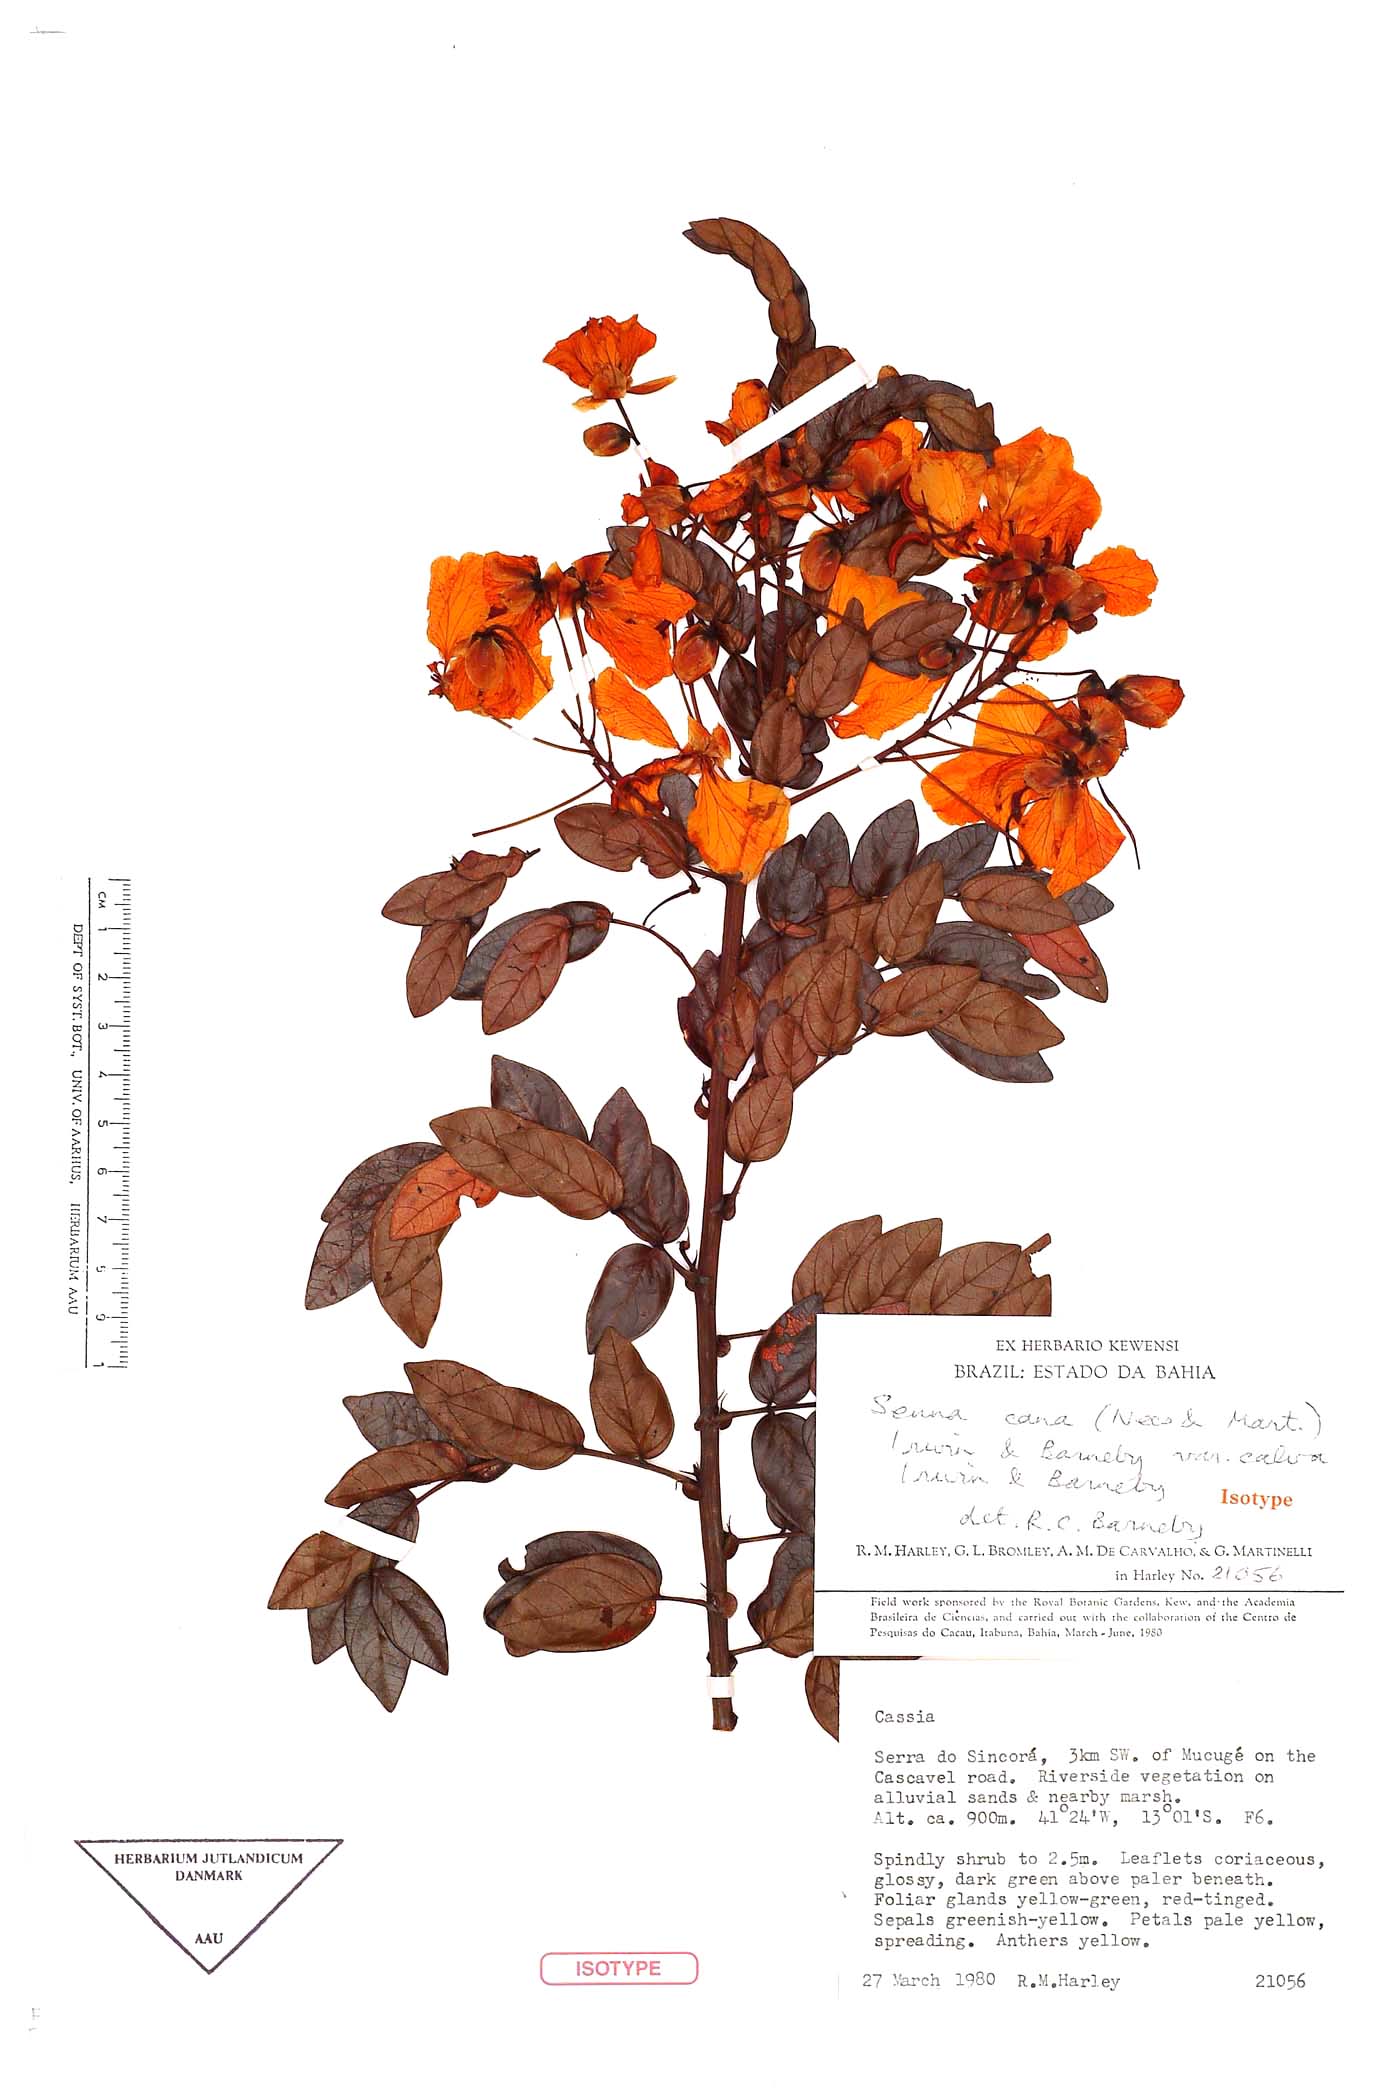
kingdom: Plantae
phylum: Tracheophyta
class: Magnoliopsida
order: Fabales
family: Fabaceae
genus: Senna
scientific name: Senna cana
